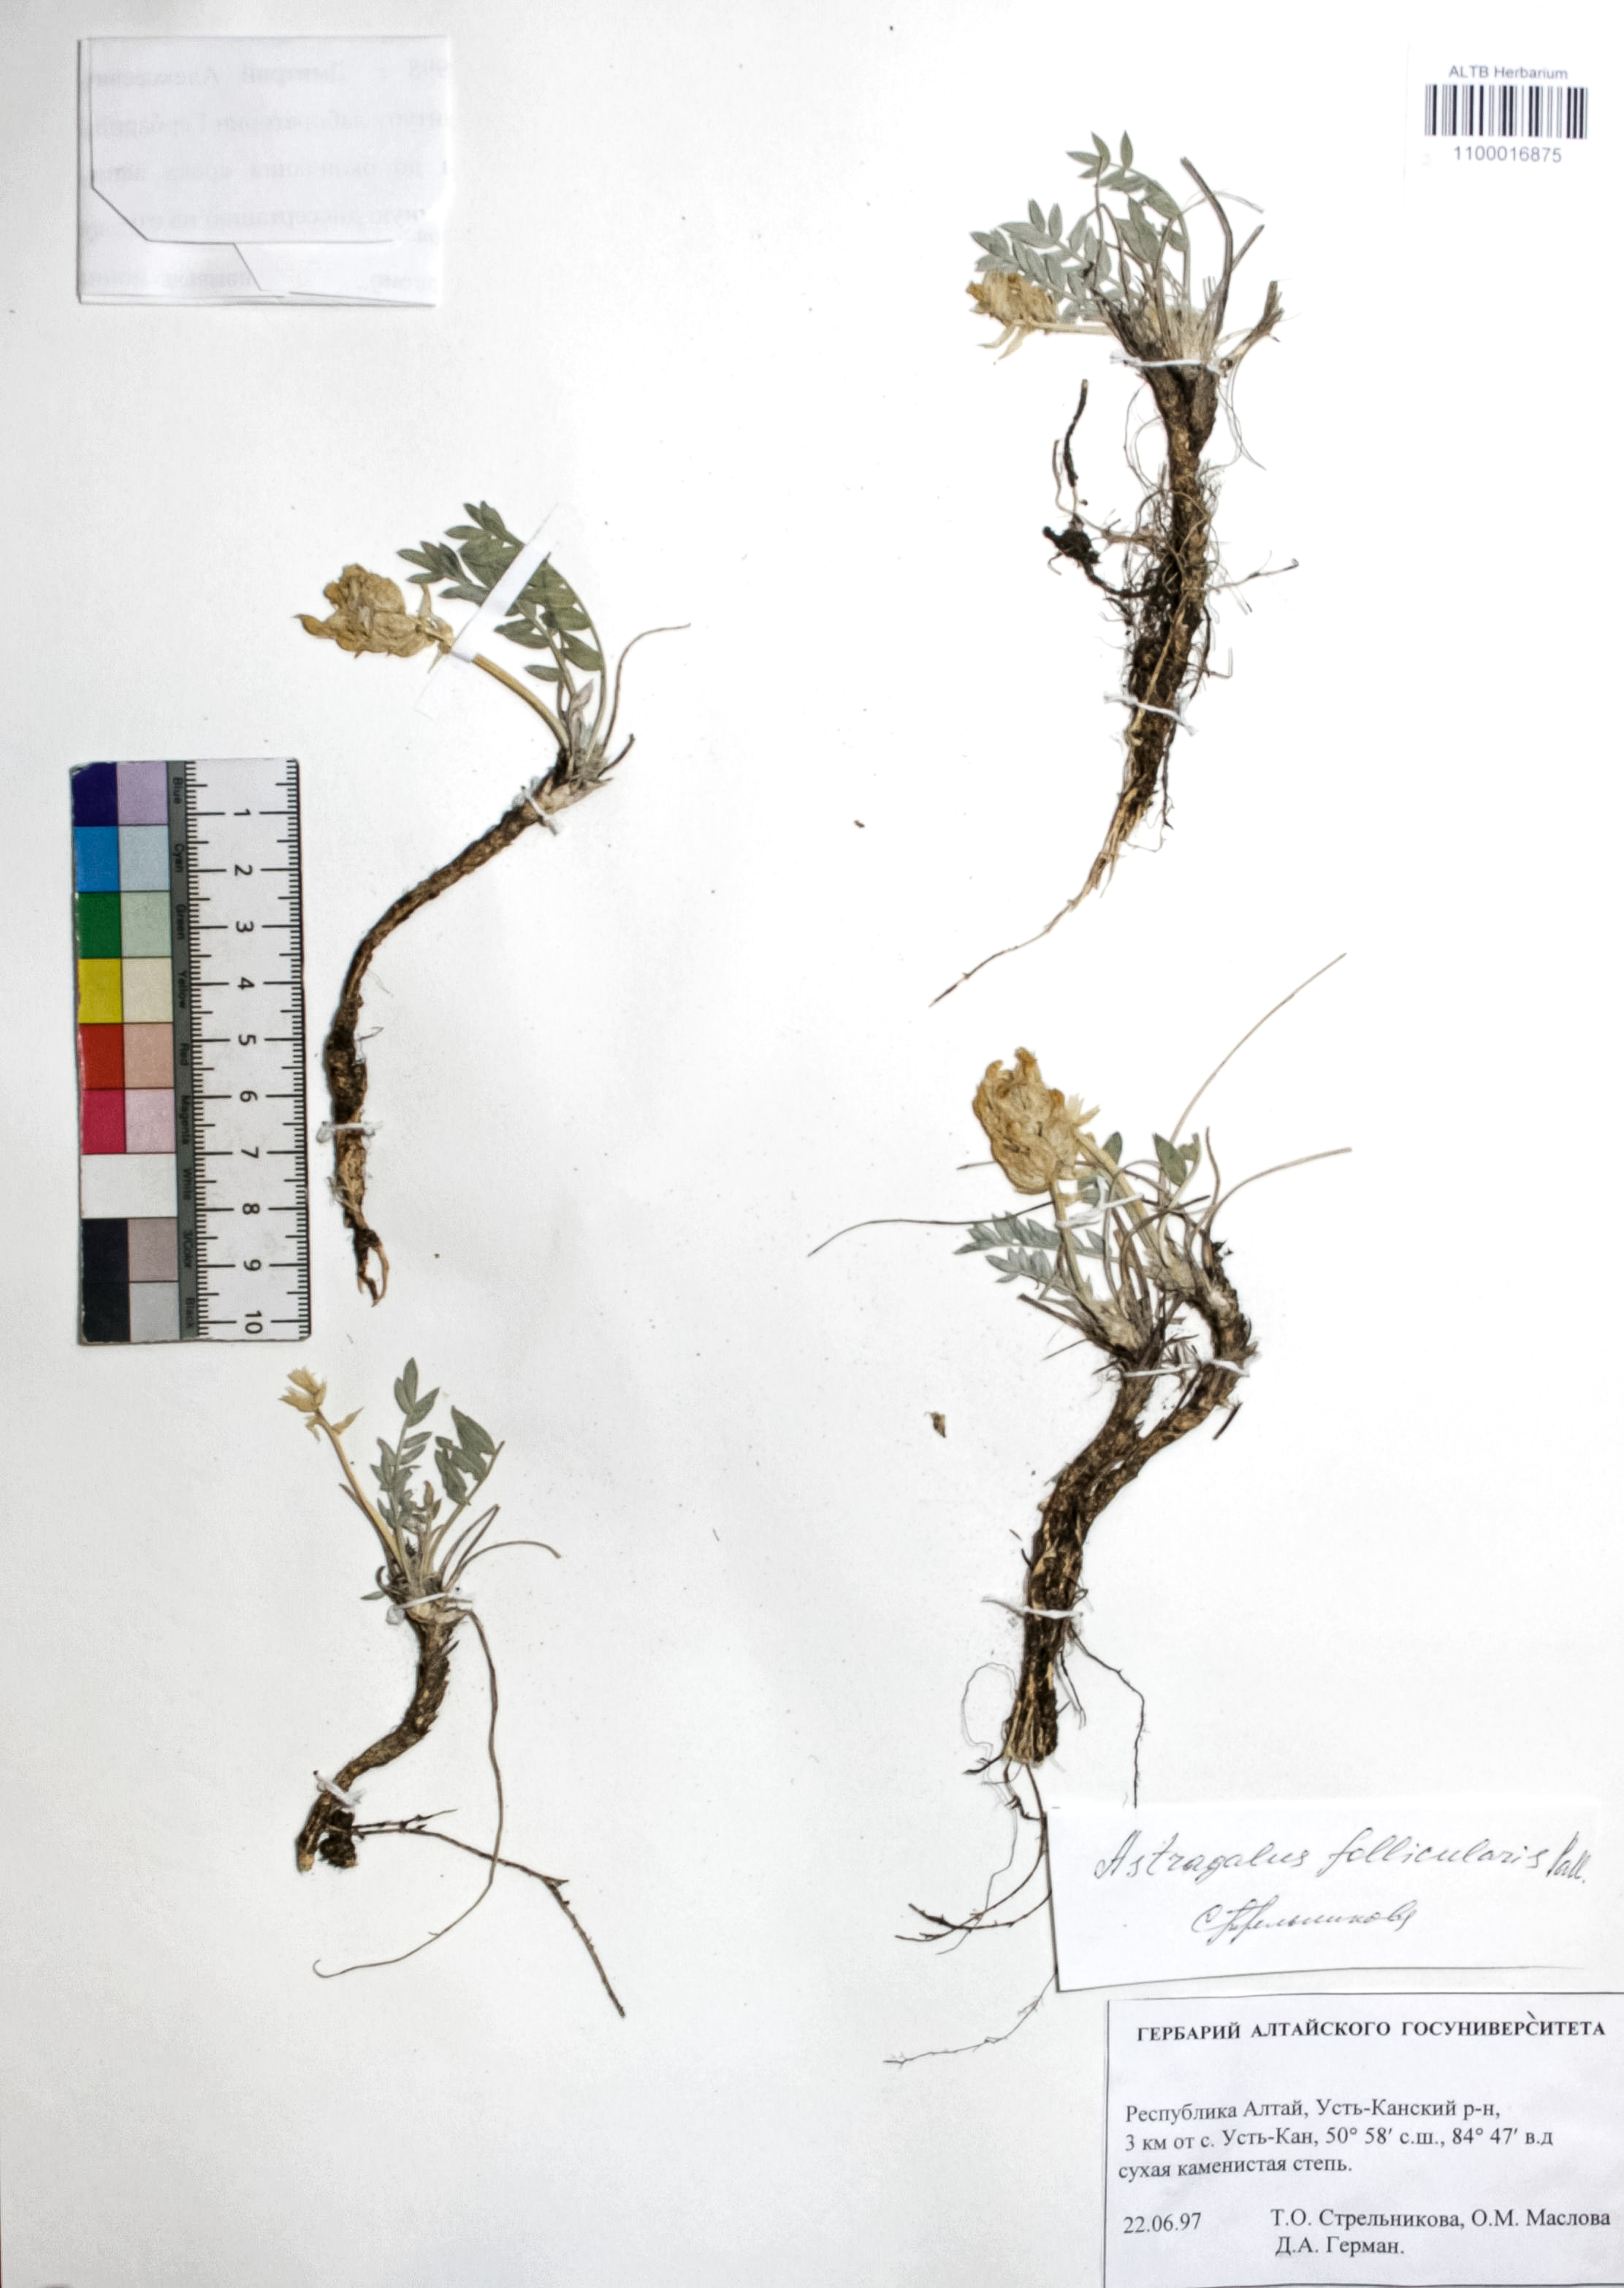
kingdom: Plantae
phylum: Tracheophyta
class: Magnoliopsida
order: Fabales
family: Fabaceae
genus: Astragalus
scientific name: Astragalus follicularis
